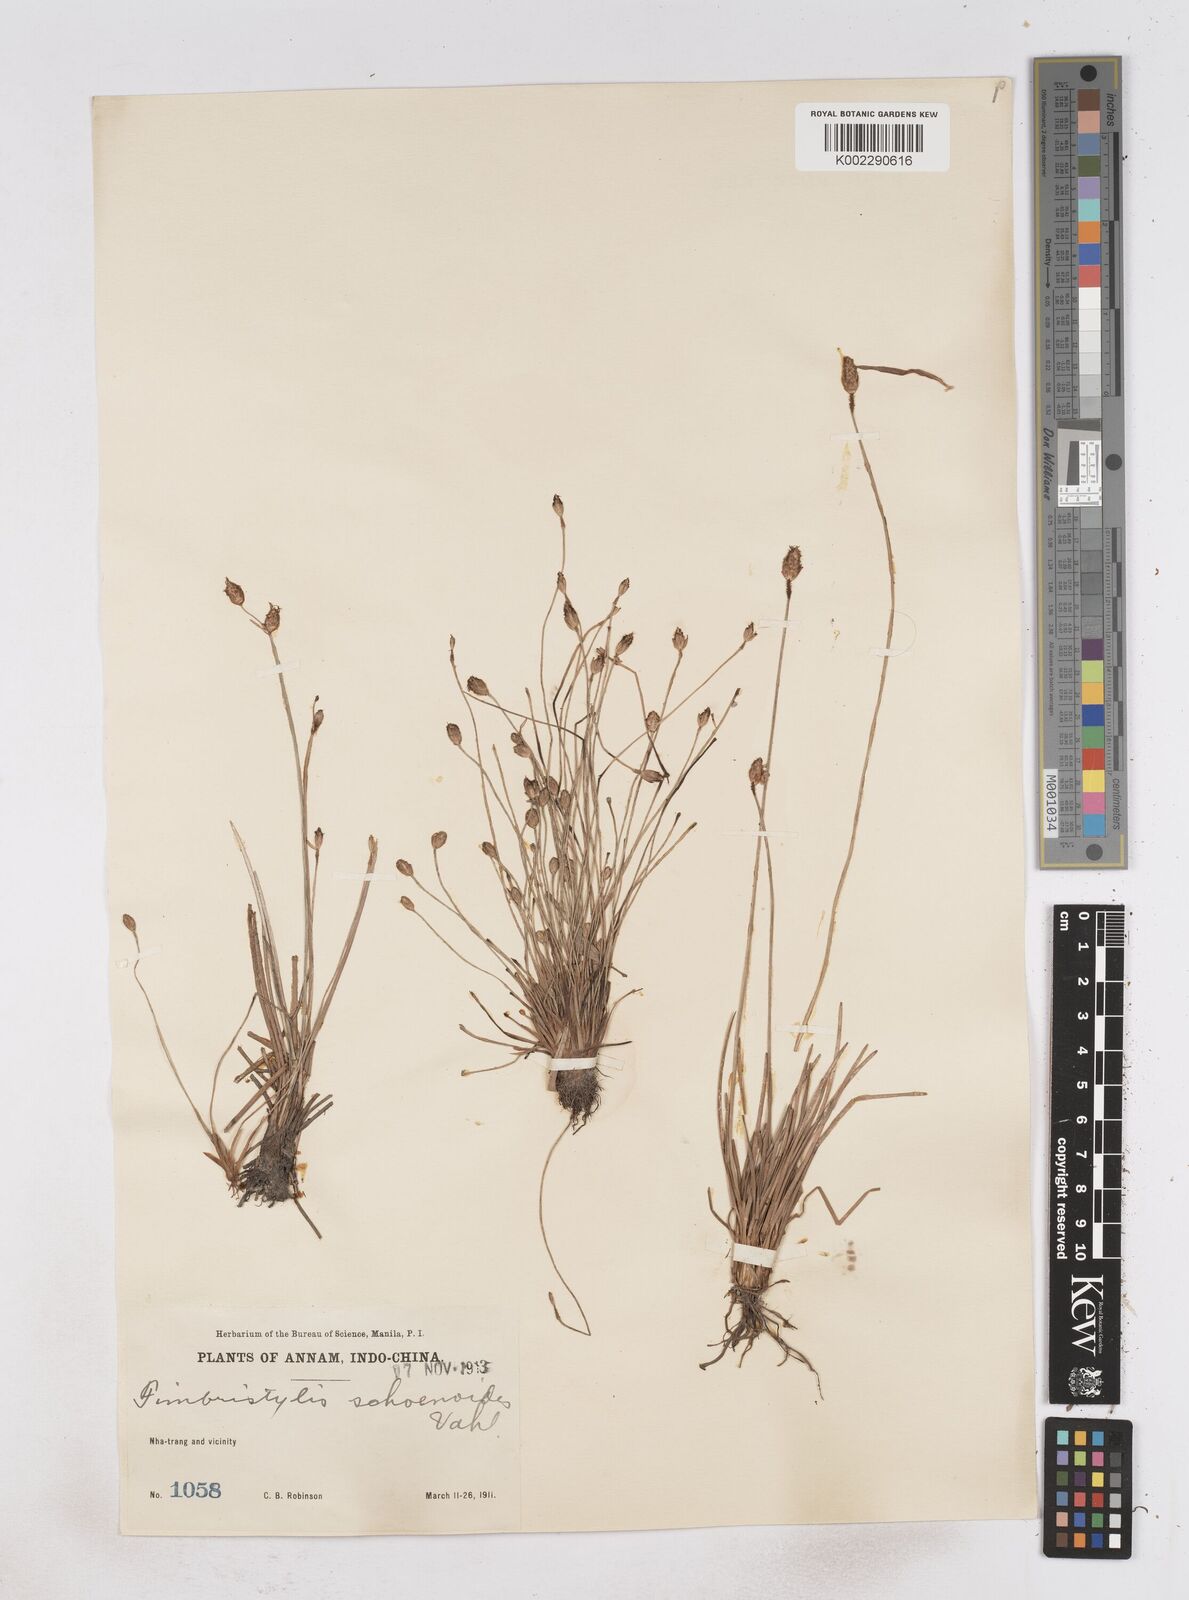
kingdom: Plantae
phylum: Tracheophyta
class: Liliopsida
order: Poales
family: Cyperaceae
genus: Fimbristylis
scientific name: Fimbristylis schoenoides
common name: Ditch fimbry
